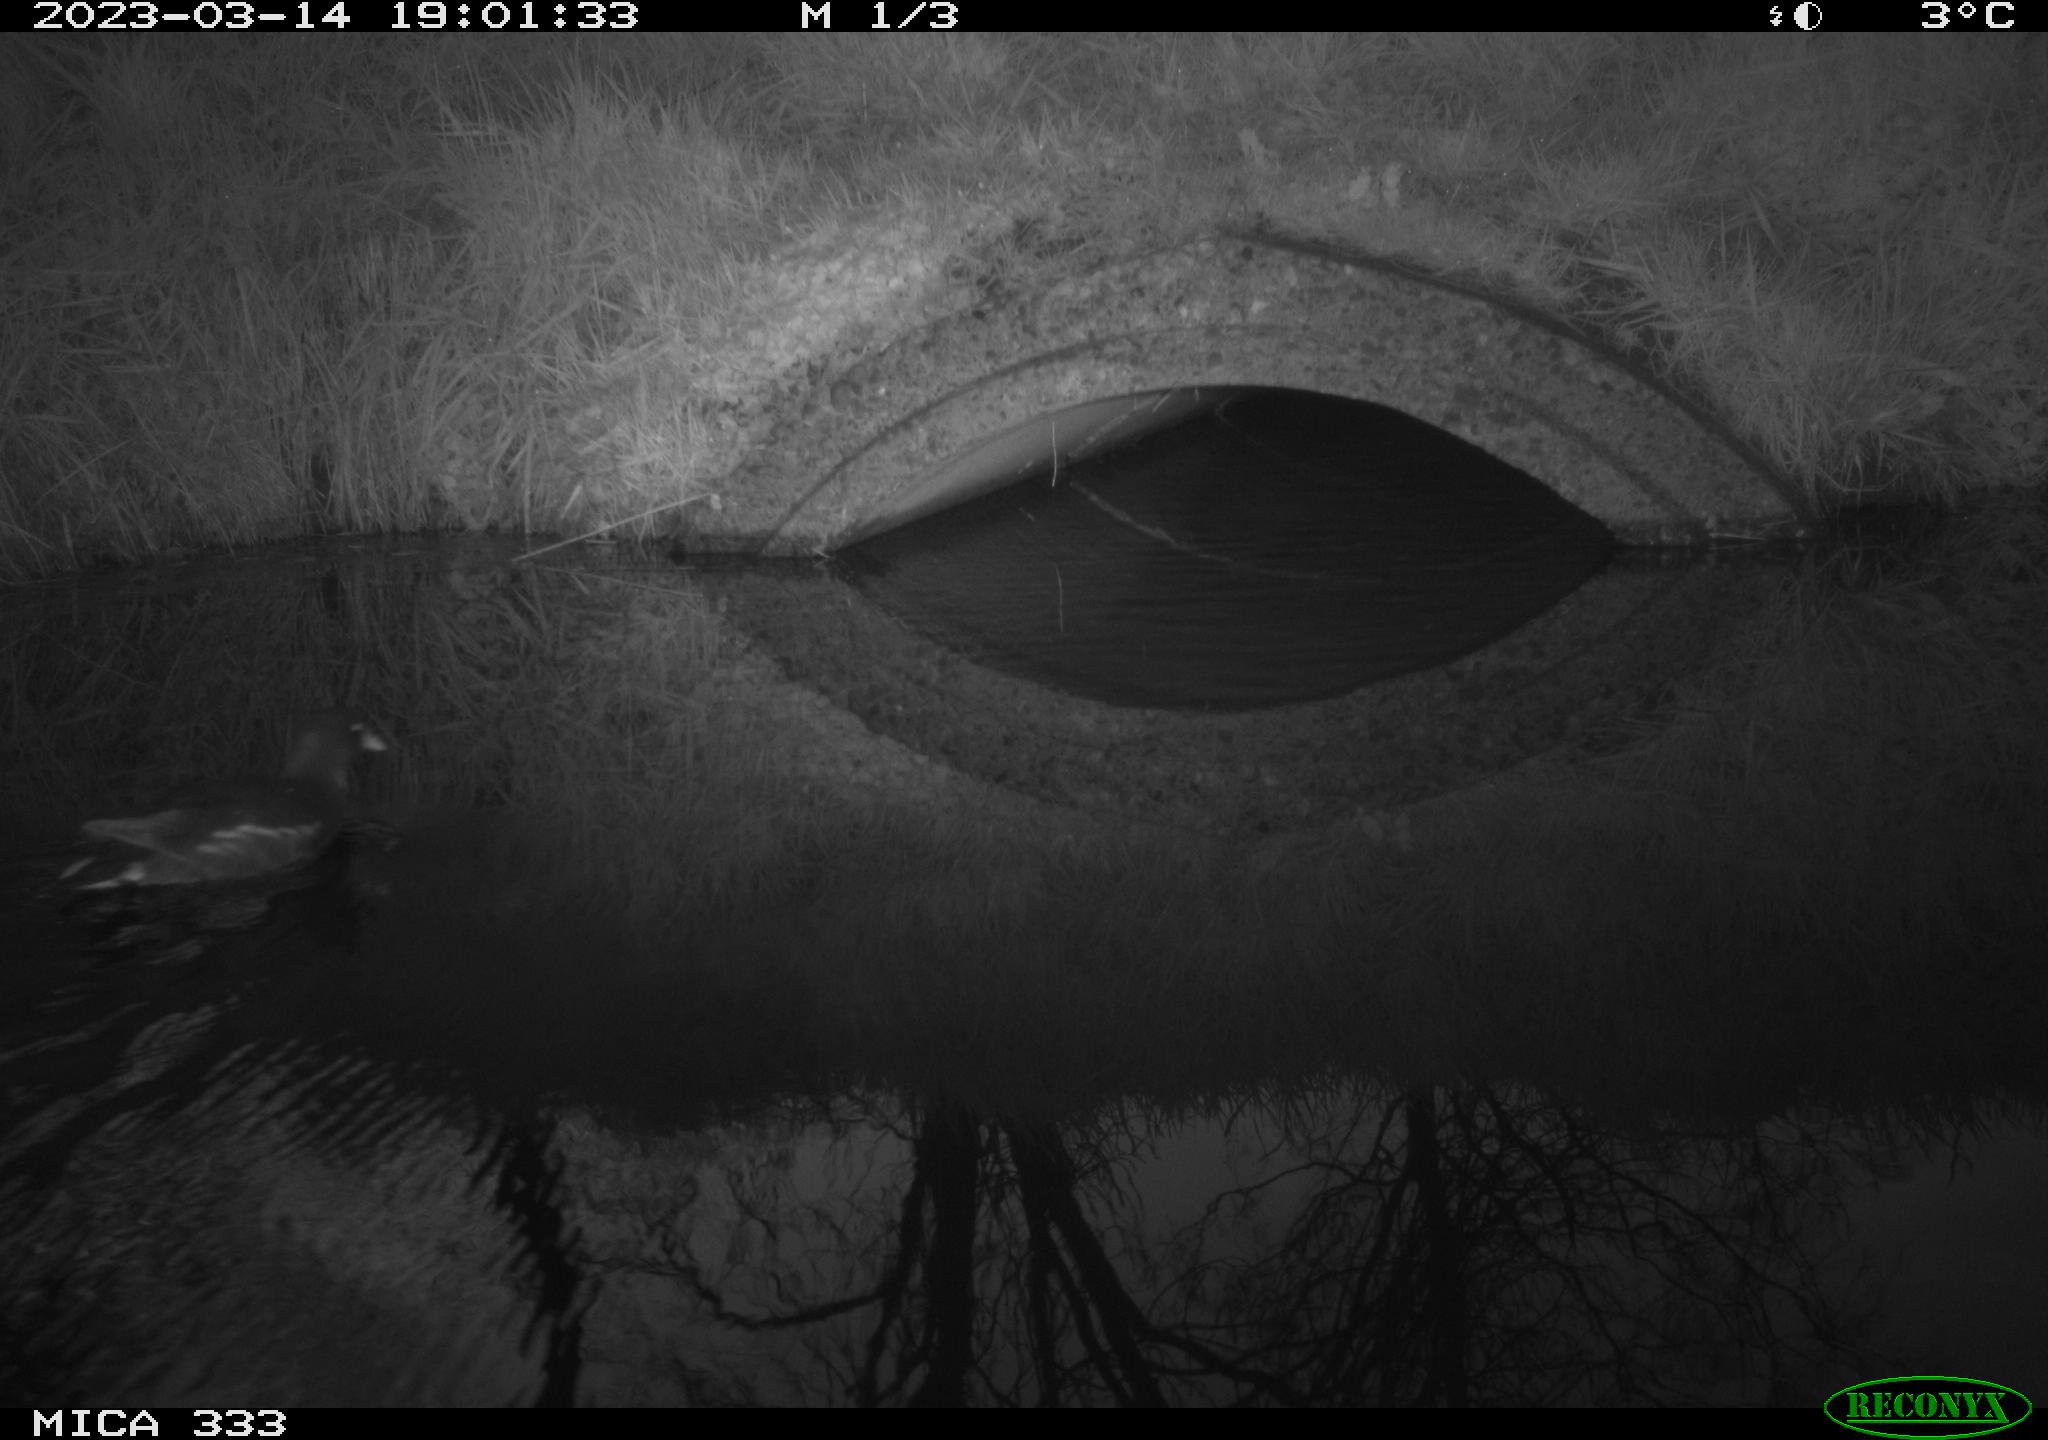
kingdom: Animalia
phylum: Chordata
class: Aves
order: Gruiformes
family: Rallidae
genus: Gallinula
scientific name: Gallinula chloropus
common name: Common moorhen
